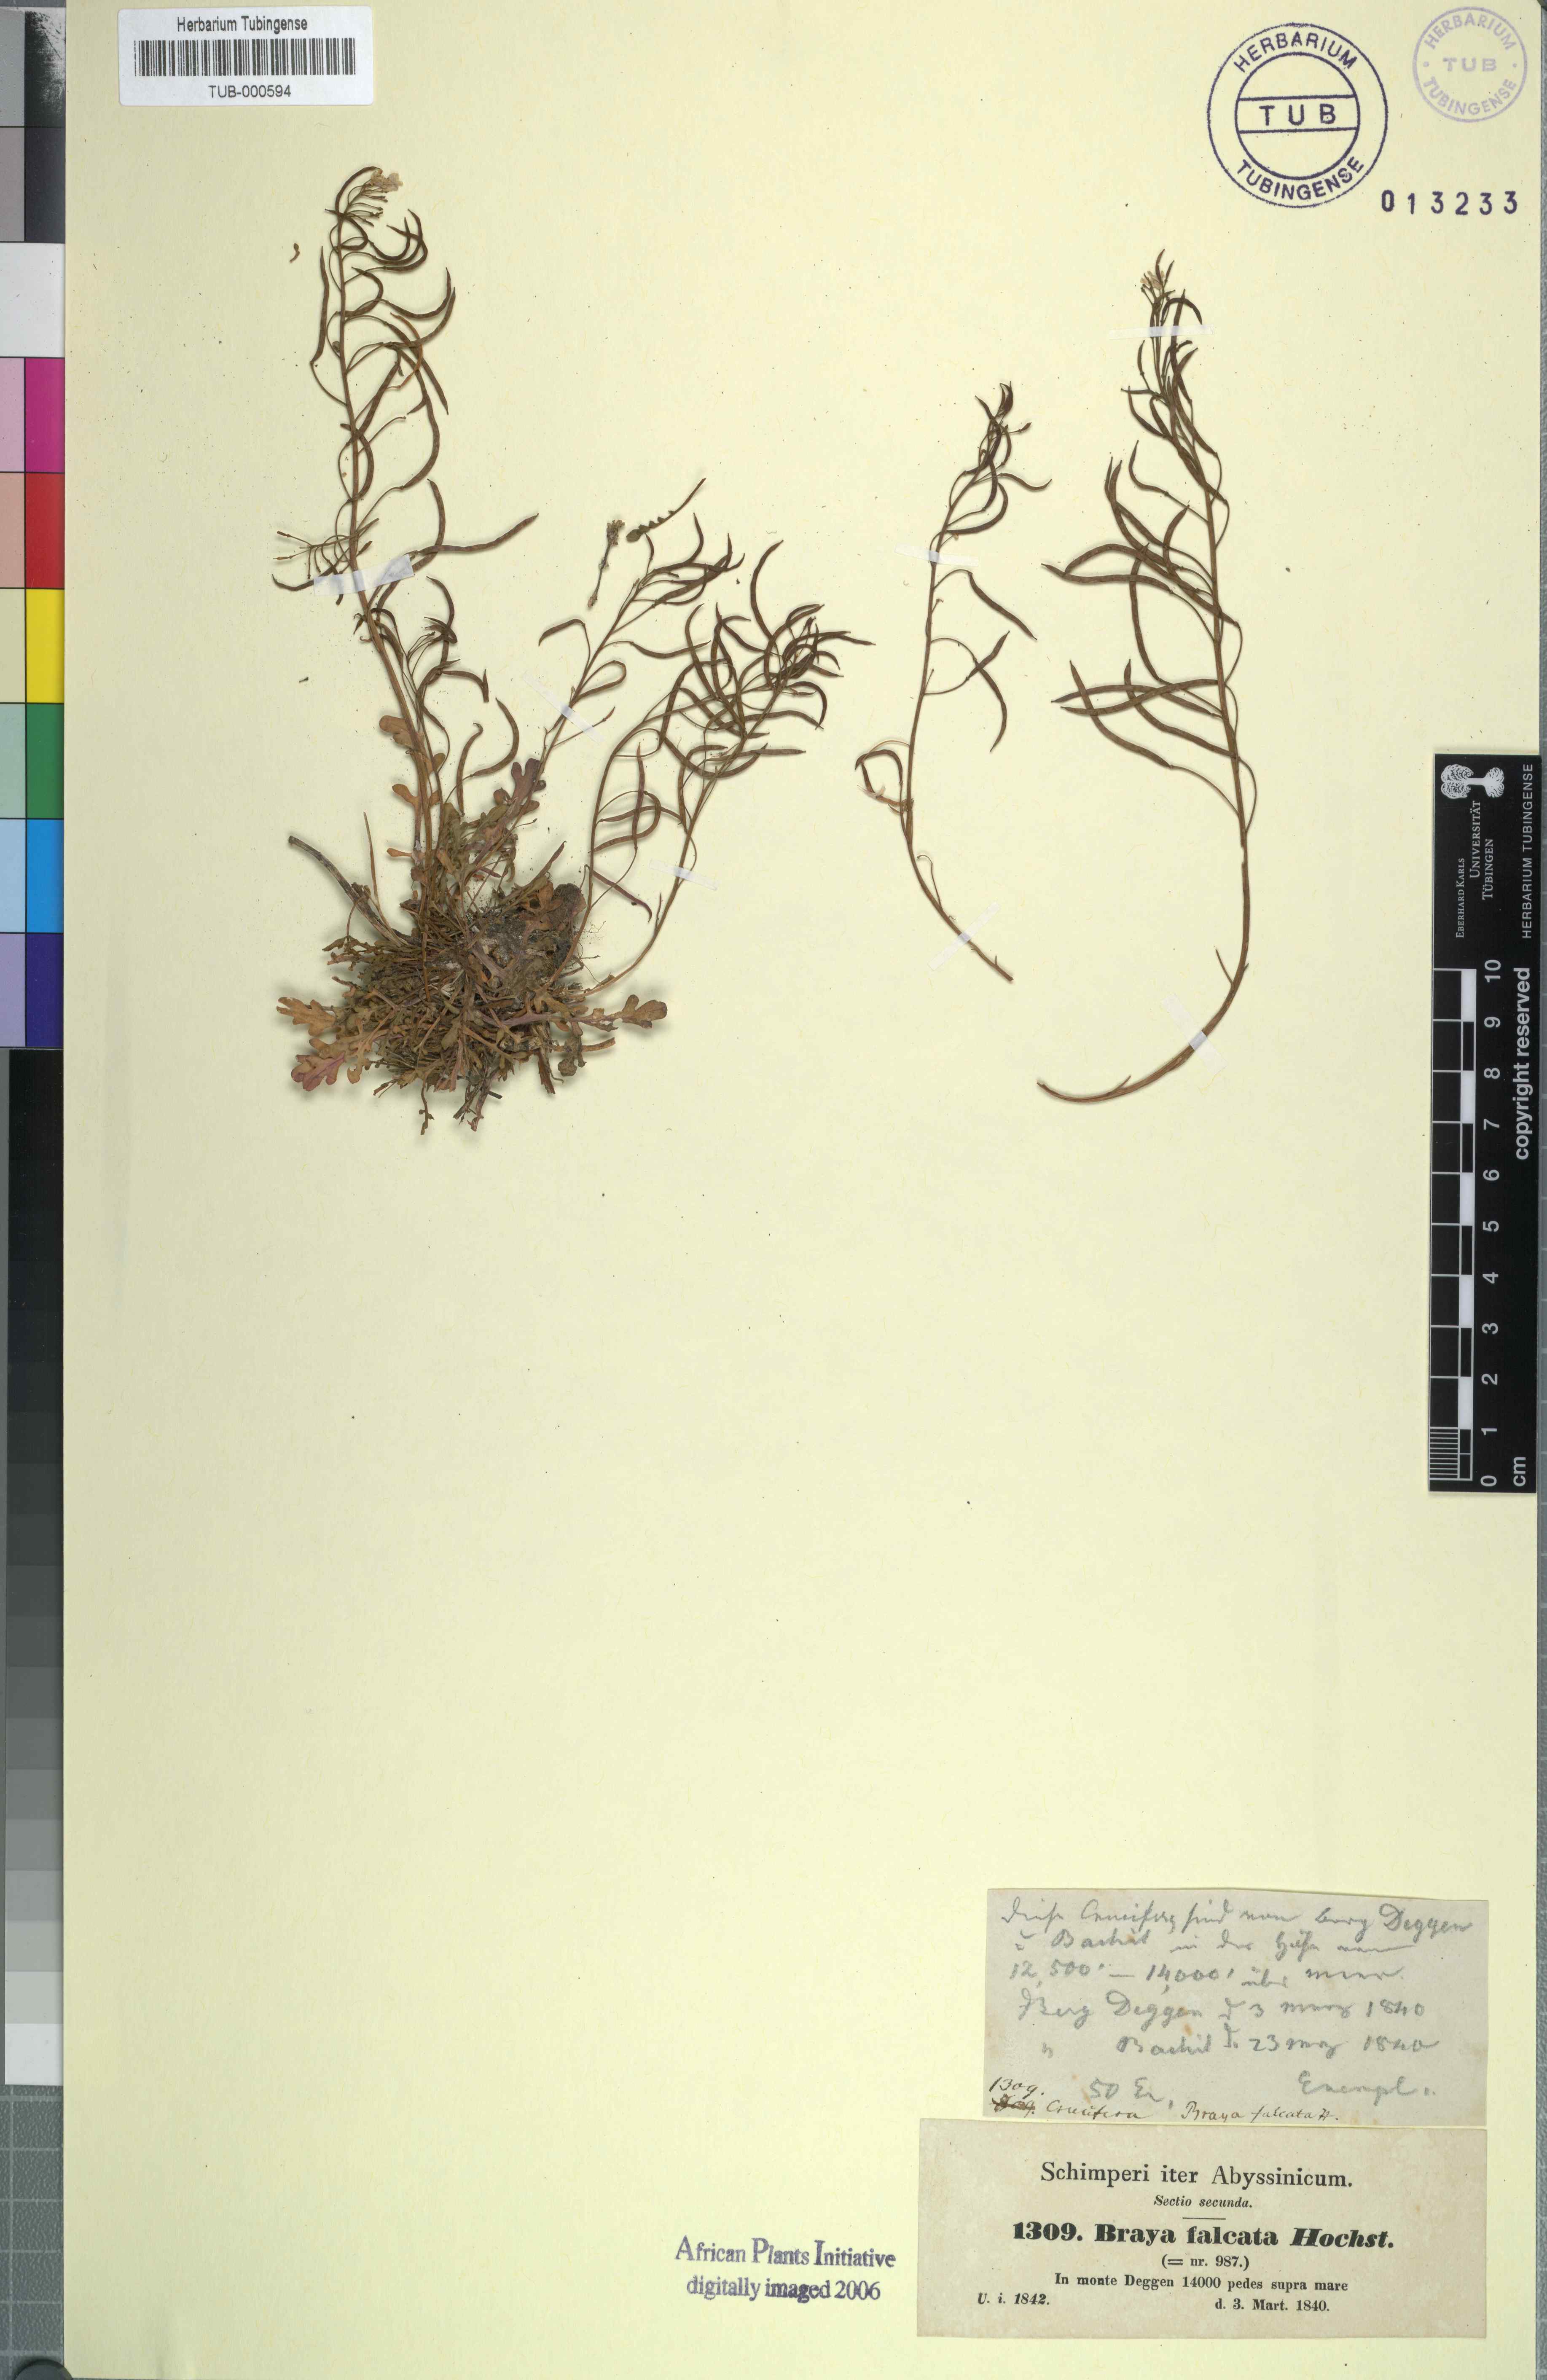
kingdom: Plantae
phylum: Tracheophyta
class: Magnoliopsida
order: Brassicales
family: Brassicaceae
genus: Oreophyton
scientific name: Oreophyton falcatum
